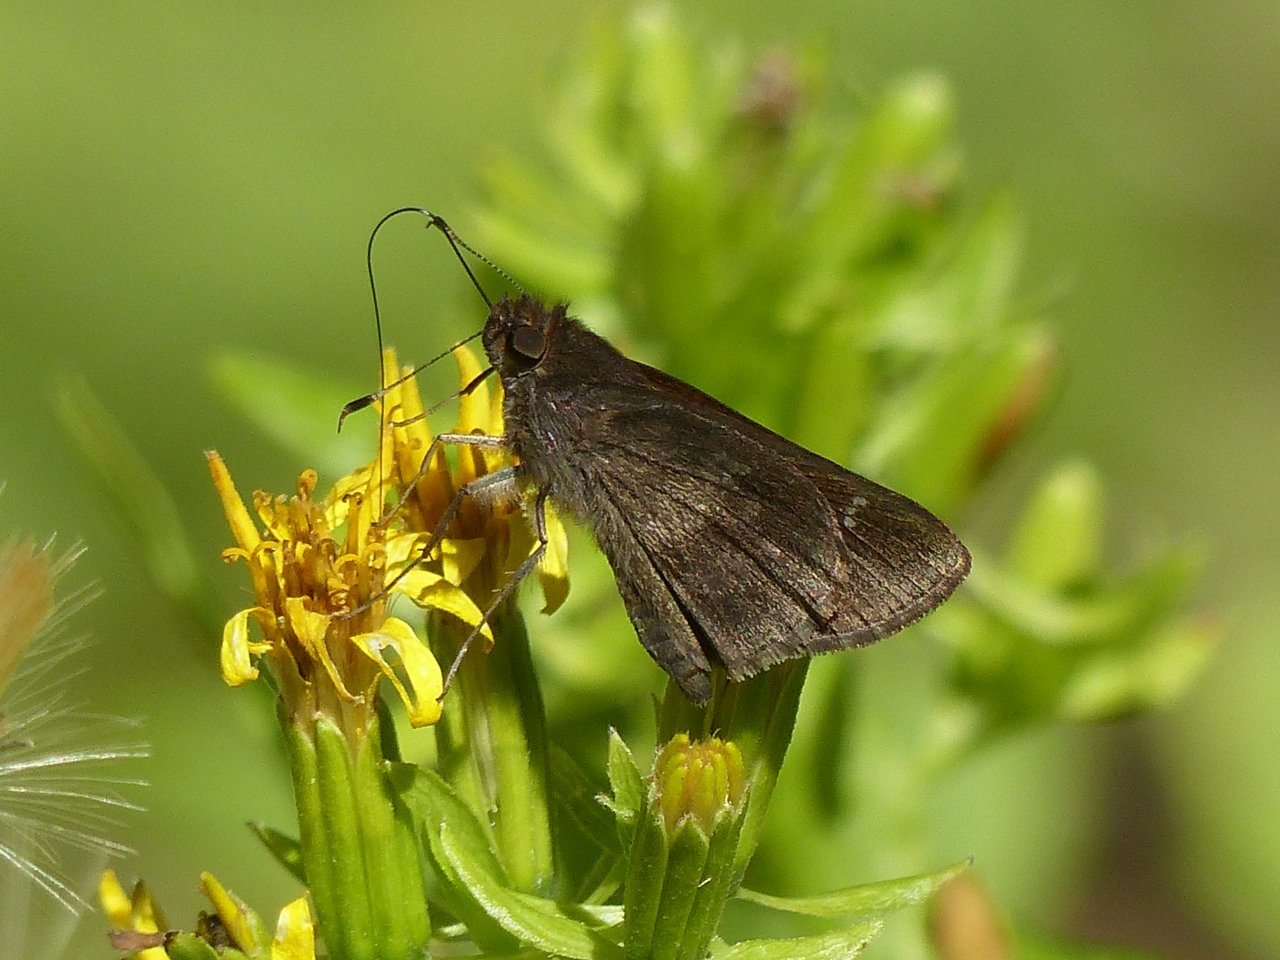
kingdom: Animalia
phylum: Arthropoda
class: Insecta
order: Lepidoptera
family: Hesperiidae
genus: Lerema
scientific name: Lerema accius
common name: Clouded Skipper
